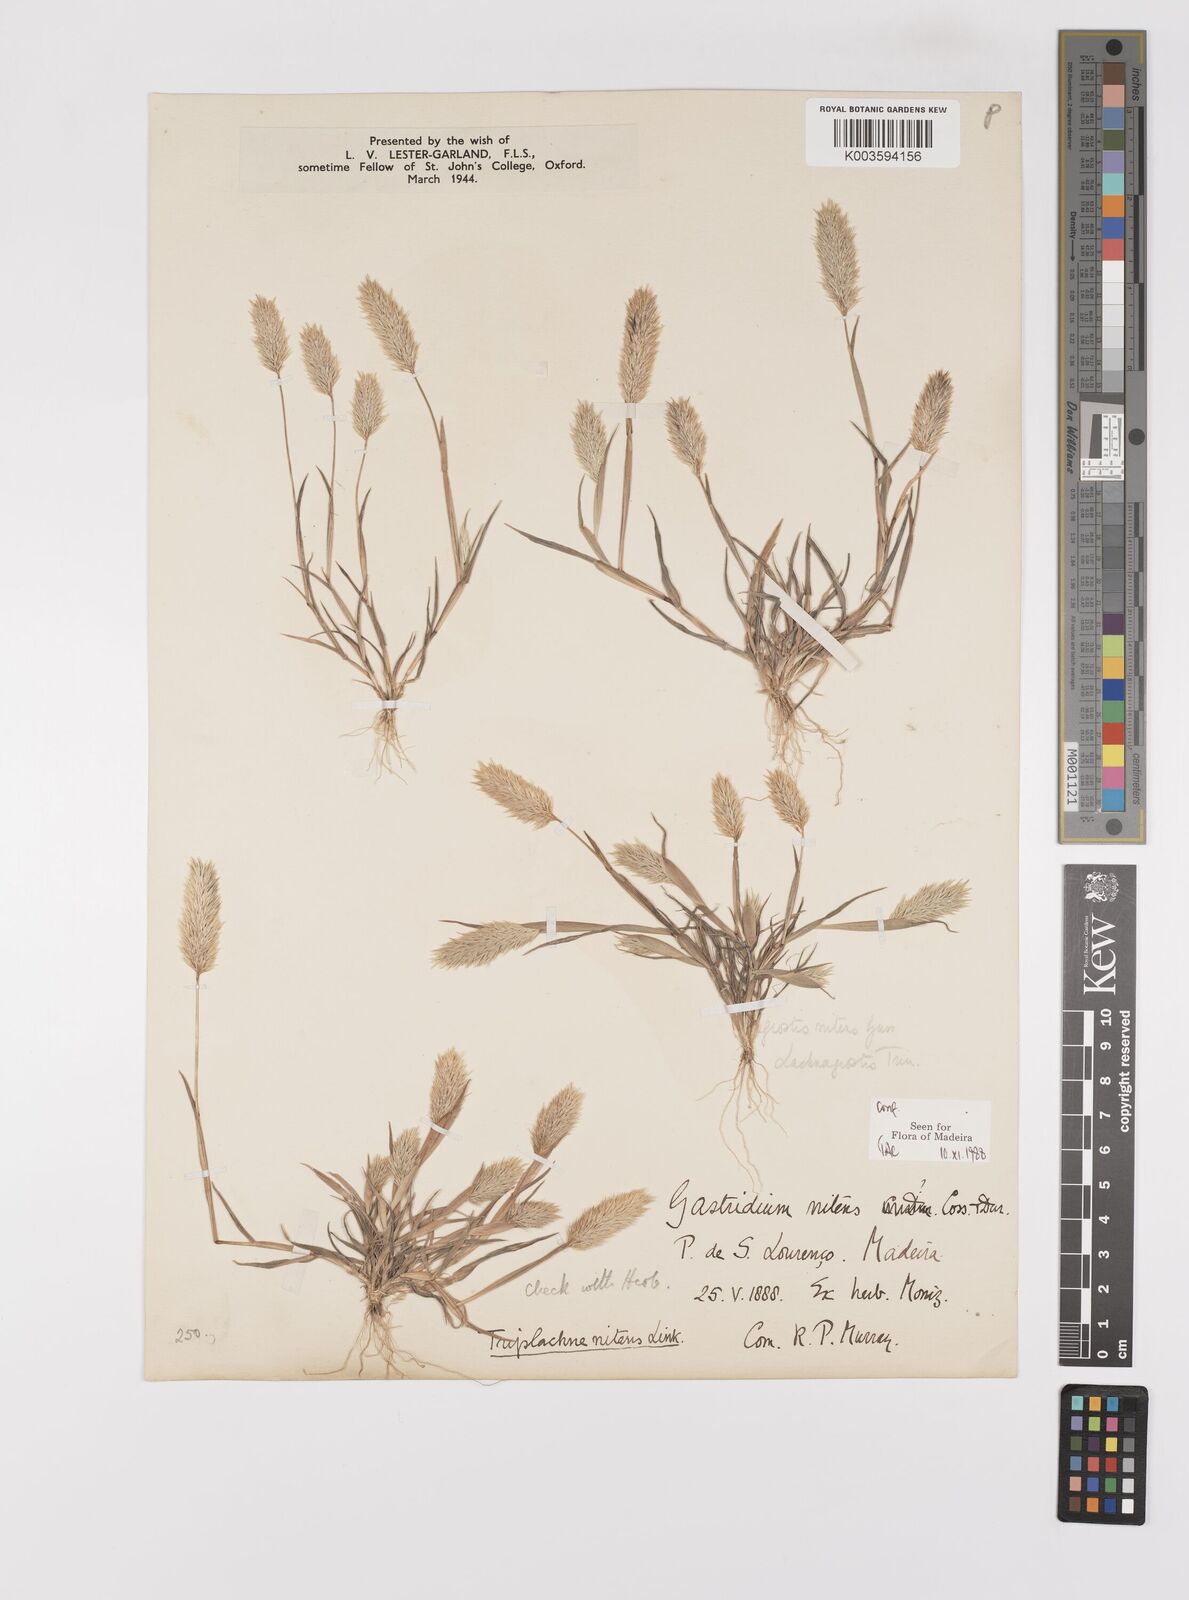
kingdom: Plantae
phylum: Tracheophyta
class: Liliopsida
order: Poales
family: Poaceae
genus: Triplachne
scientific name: Triplachne nitens
